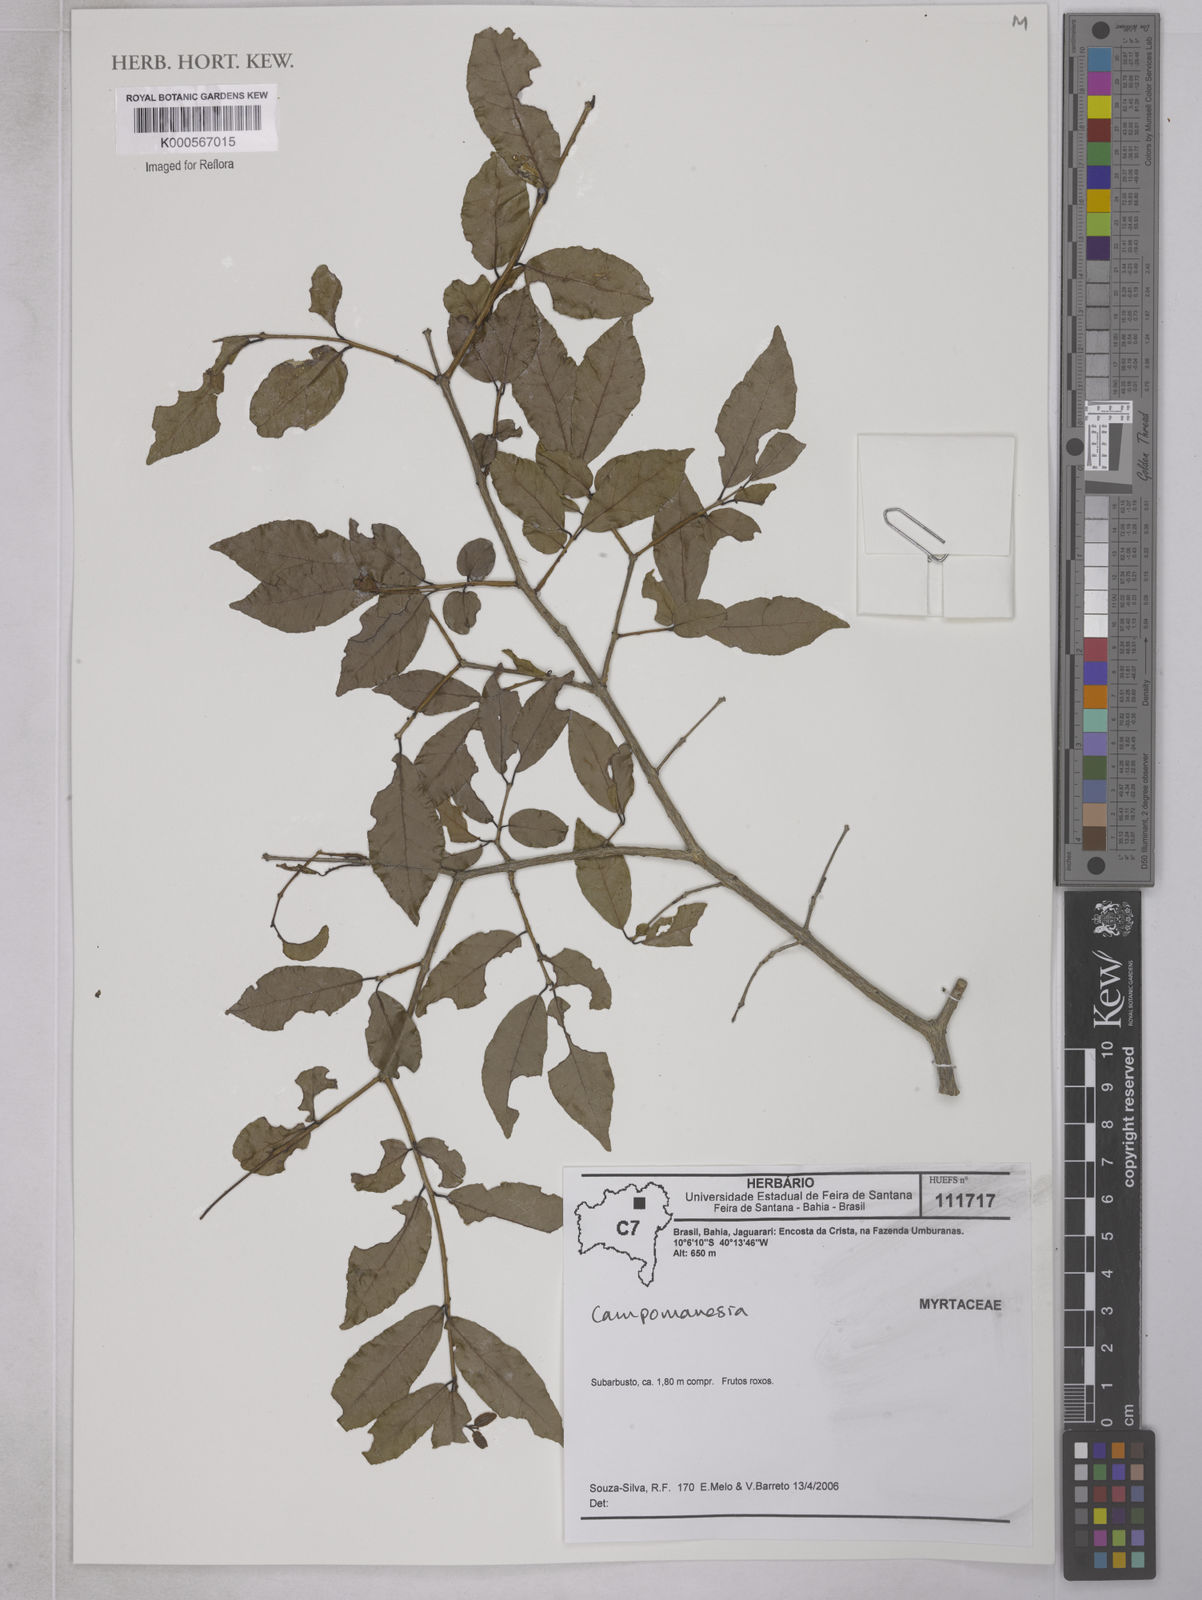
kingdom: Plantae
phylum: Tracheophyta
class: Magnoliopsida
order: Myrtales
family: Myrtaceae
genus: Campomanesia
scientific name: Campomanesia
